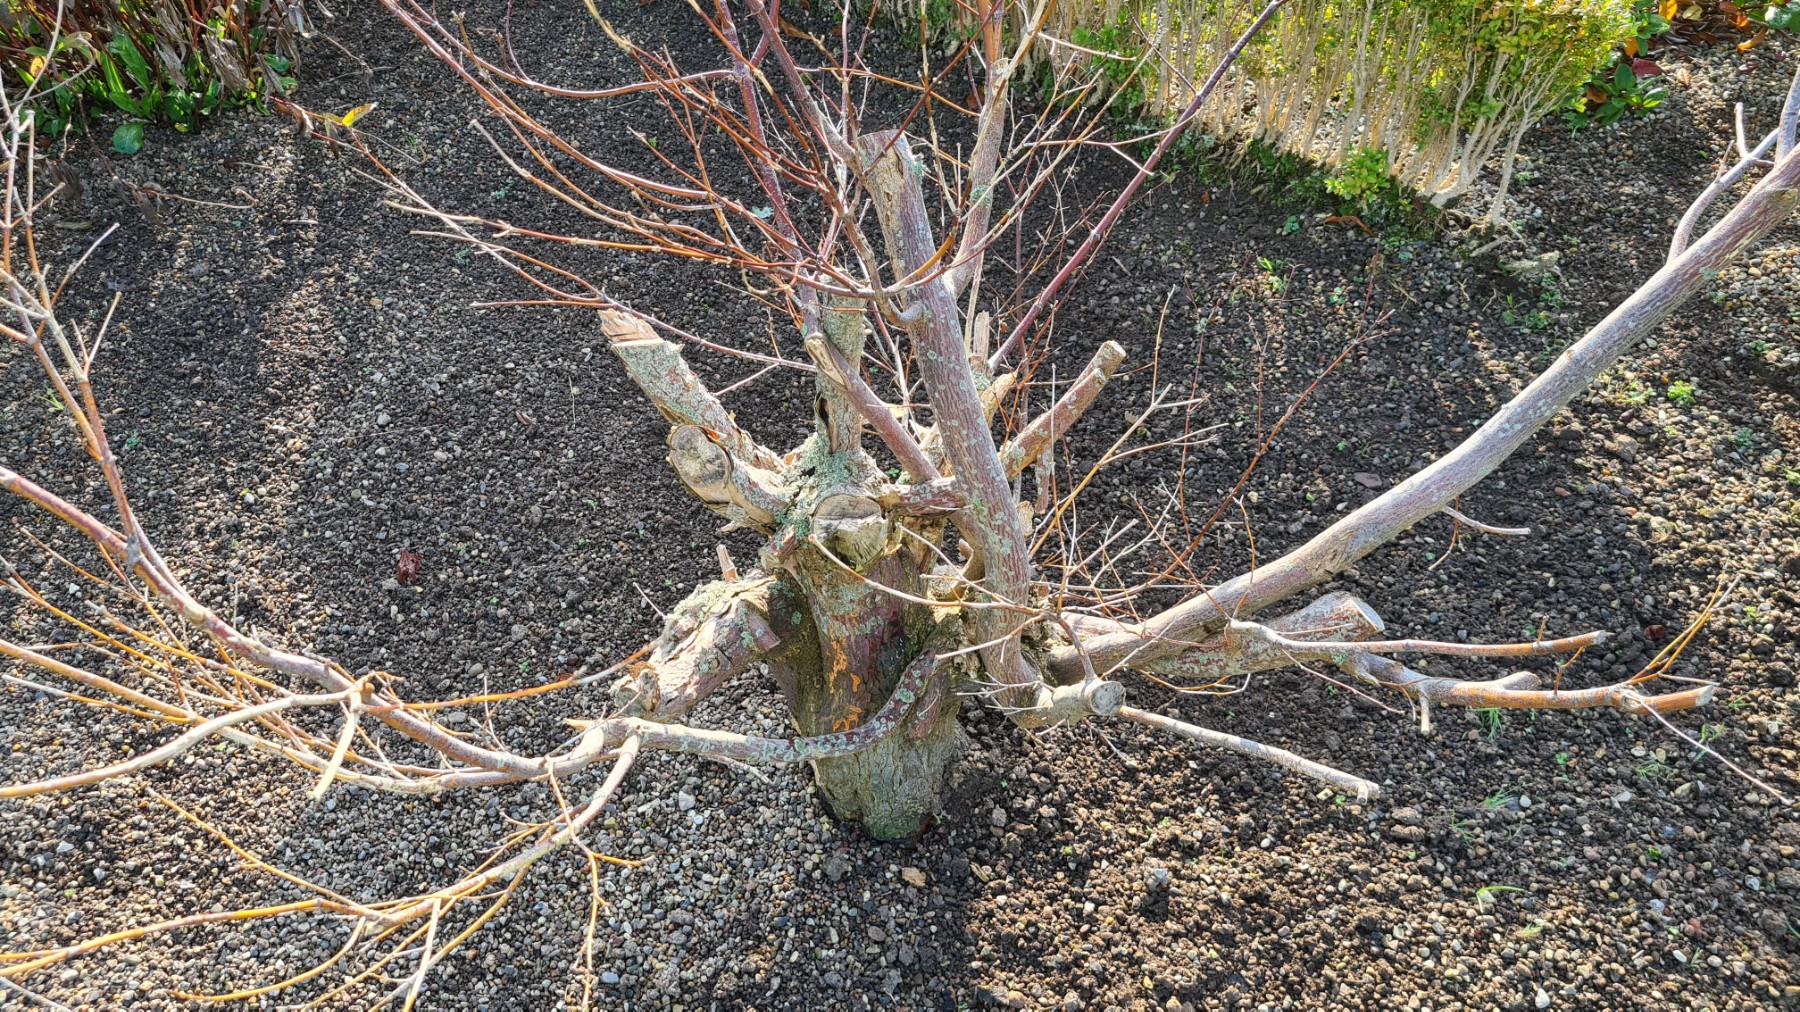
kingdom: Fungi
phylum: Basidiomycota
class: Agaricomycetes
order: Polyporales
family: Meruliaceae
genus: Phlebia
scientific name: Phlebia radiata
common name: stråle-åresvamp
